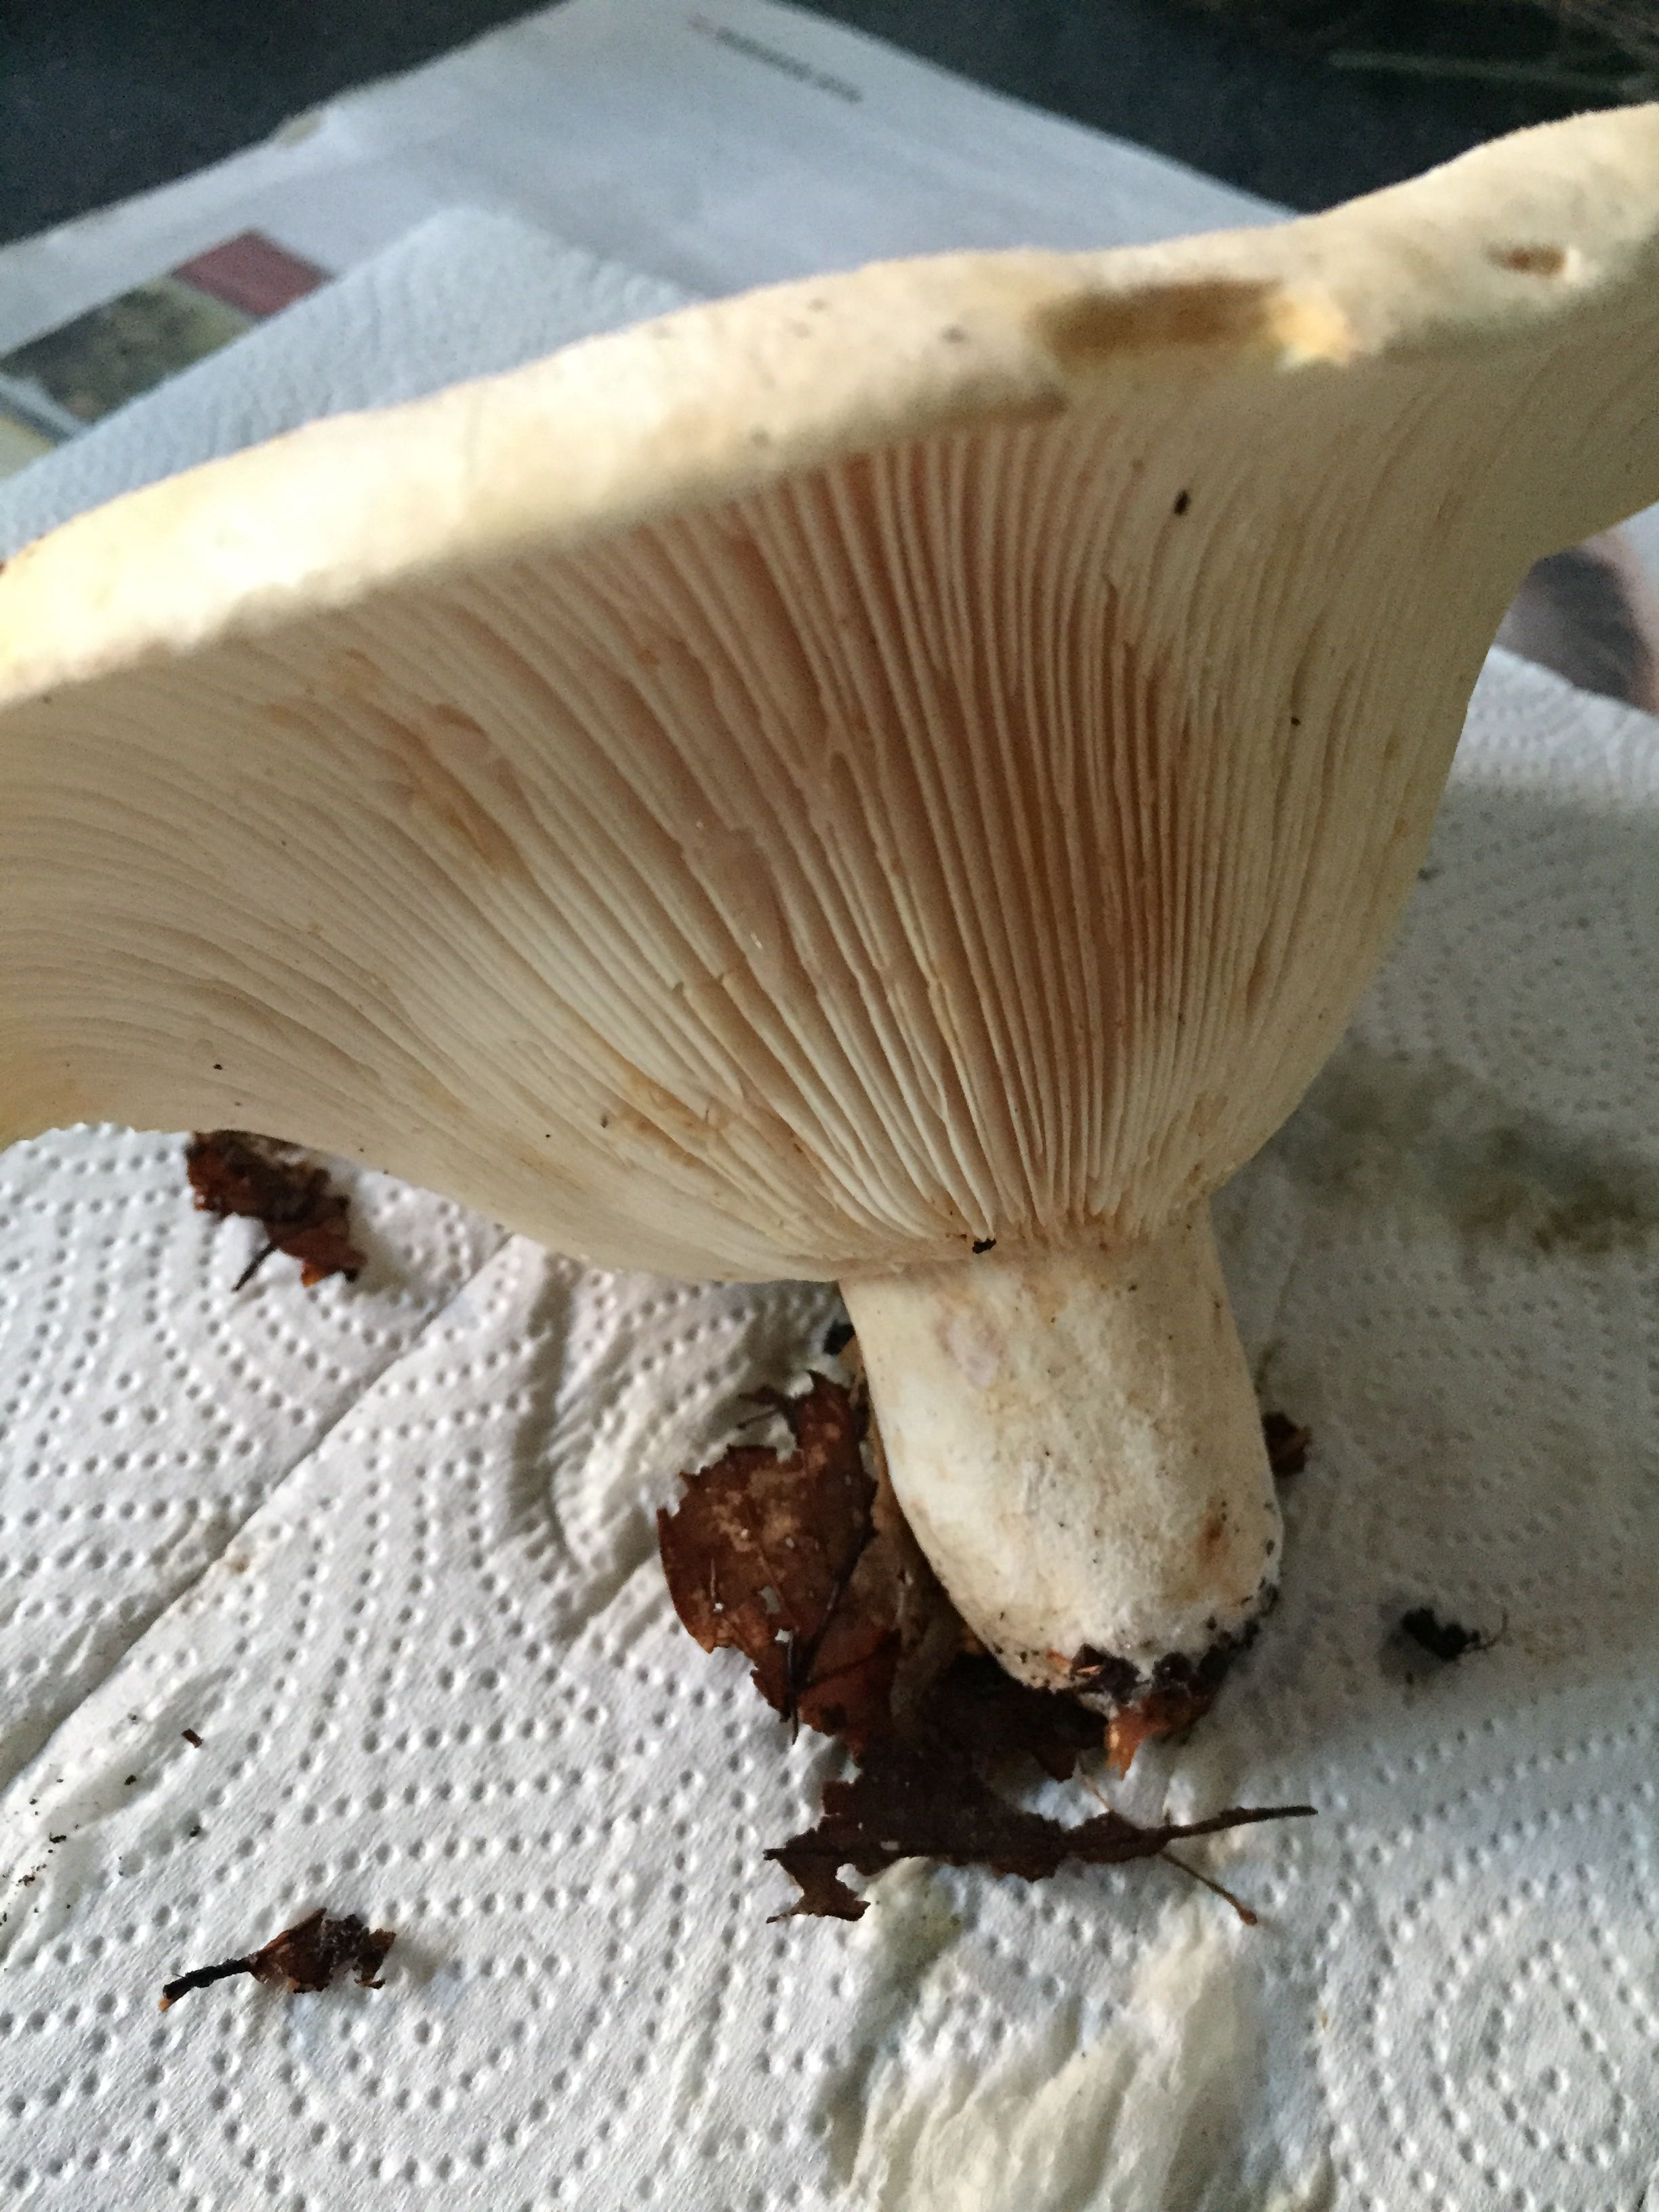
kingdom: Fungi
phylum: Basidiomycota
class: Agaricomycetes
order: Russulales
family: Russulaceae
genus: Lactifluus
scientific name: Lactifluus
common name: mælkehat
